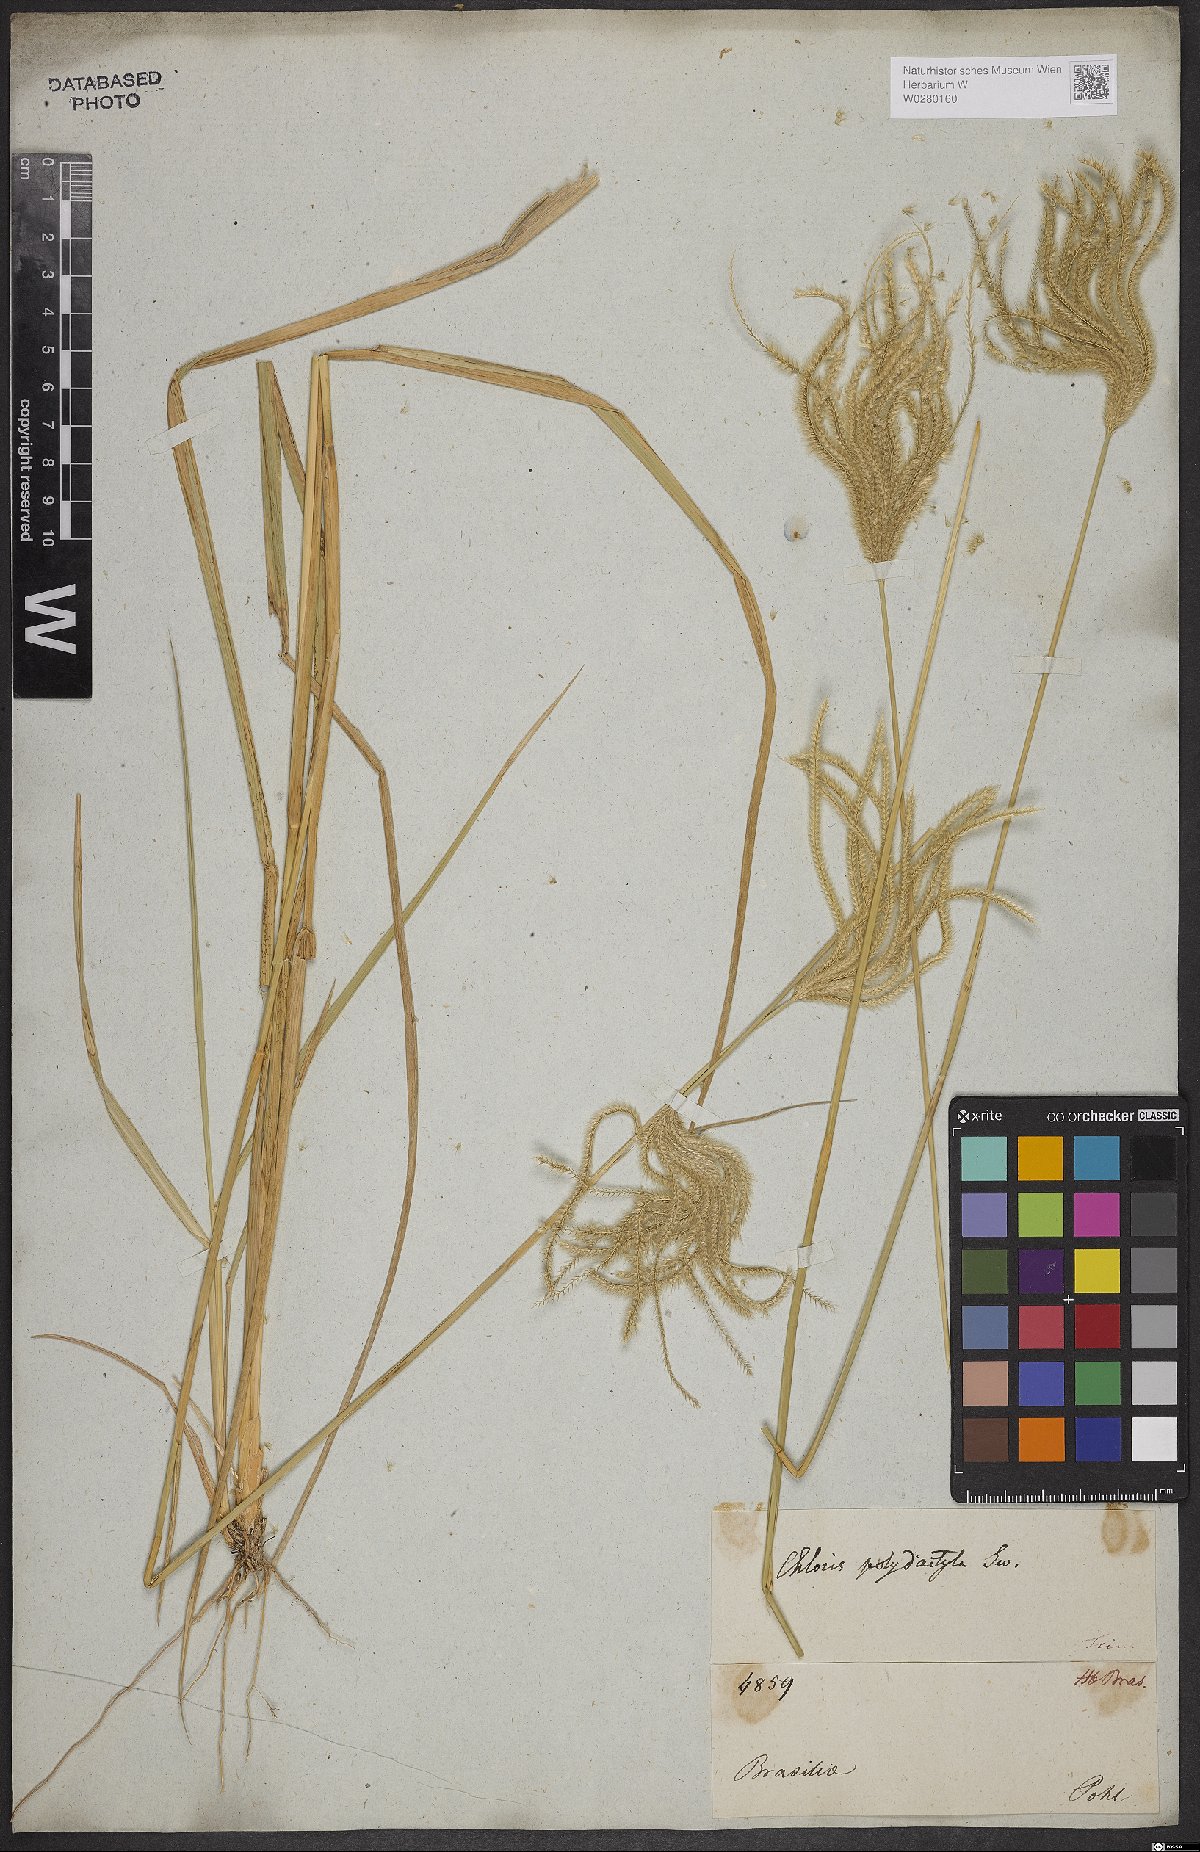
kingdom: Plantae
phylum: Tracheophyta
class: Liliopsida
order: Poales
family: Poaceae
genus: Stapfochloa
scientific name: Stapfochloa elata
